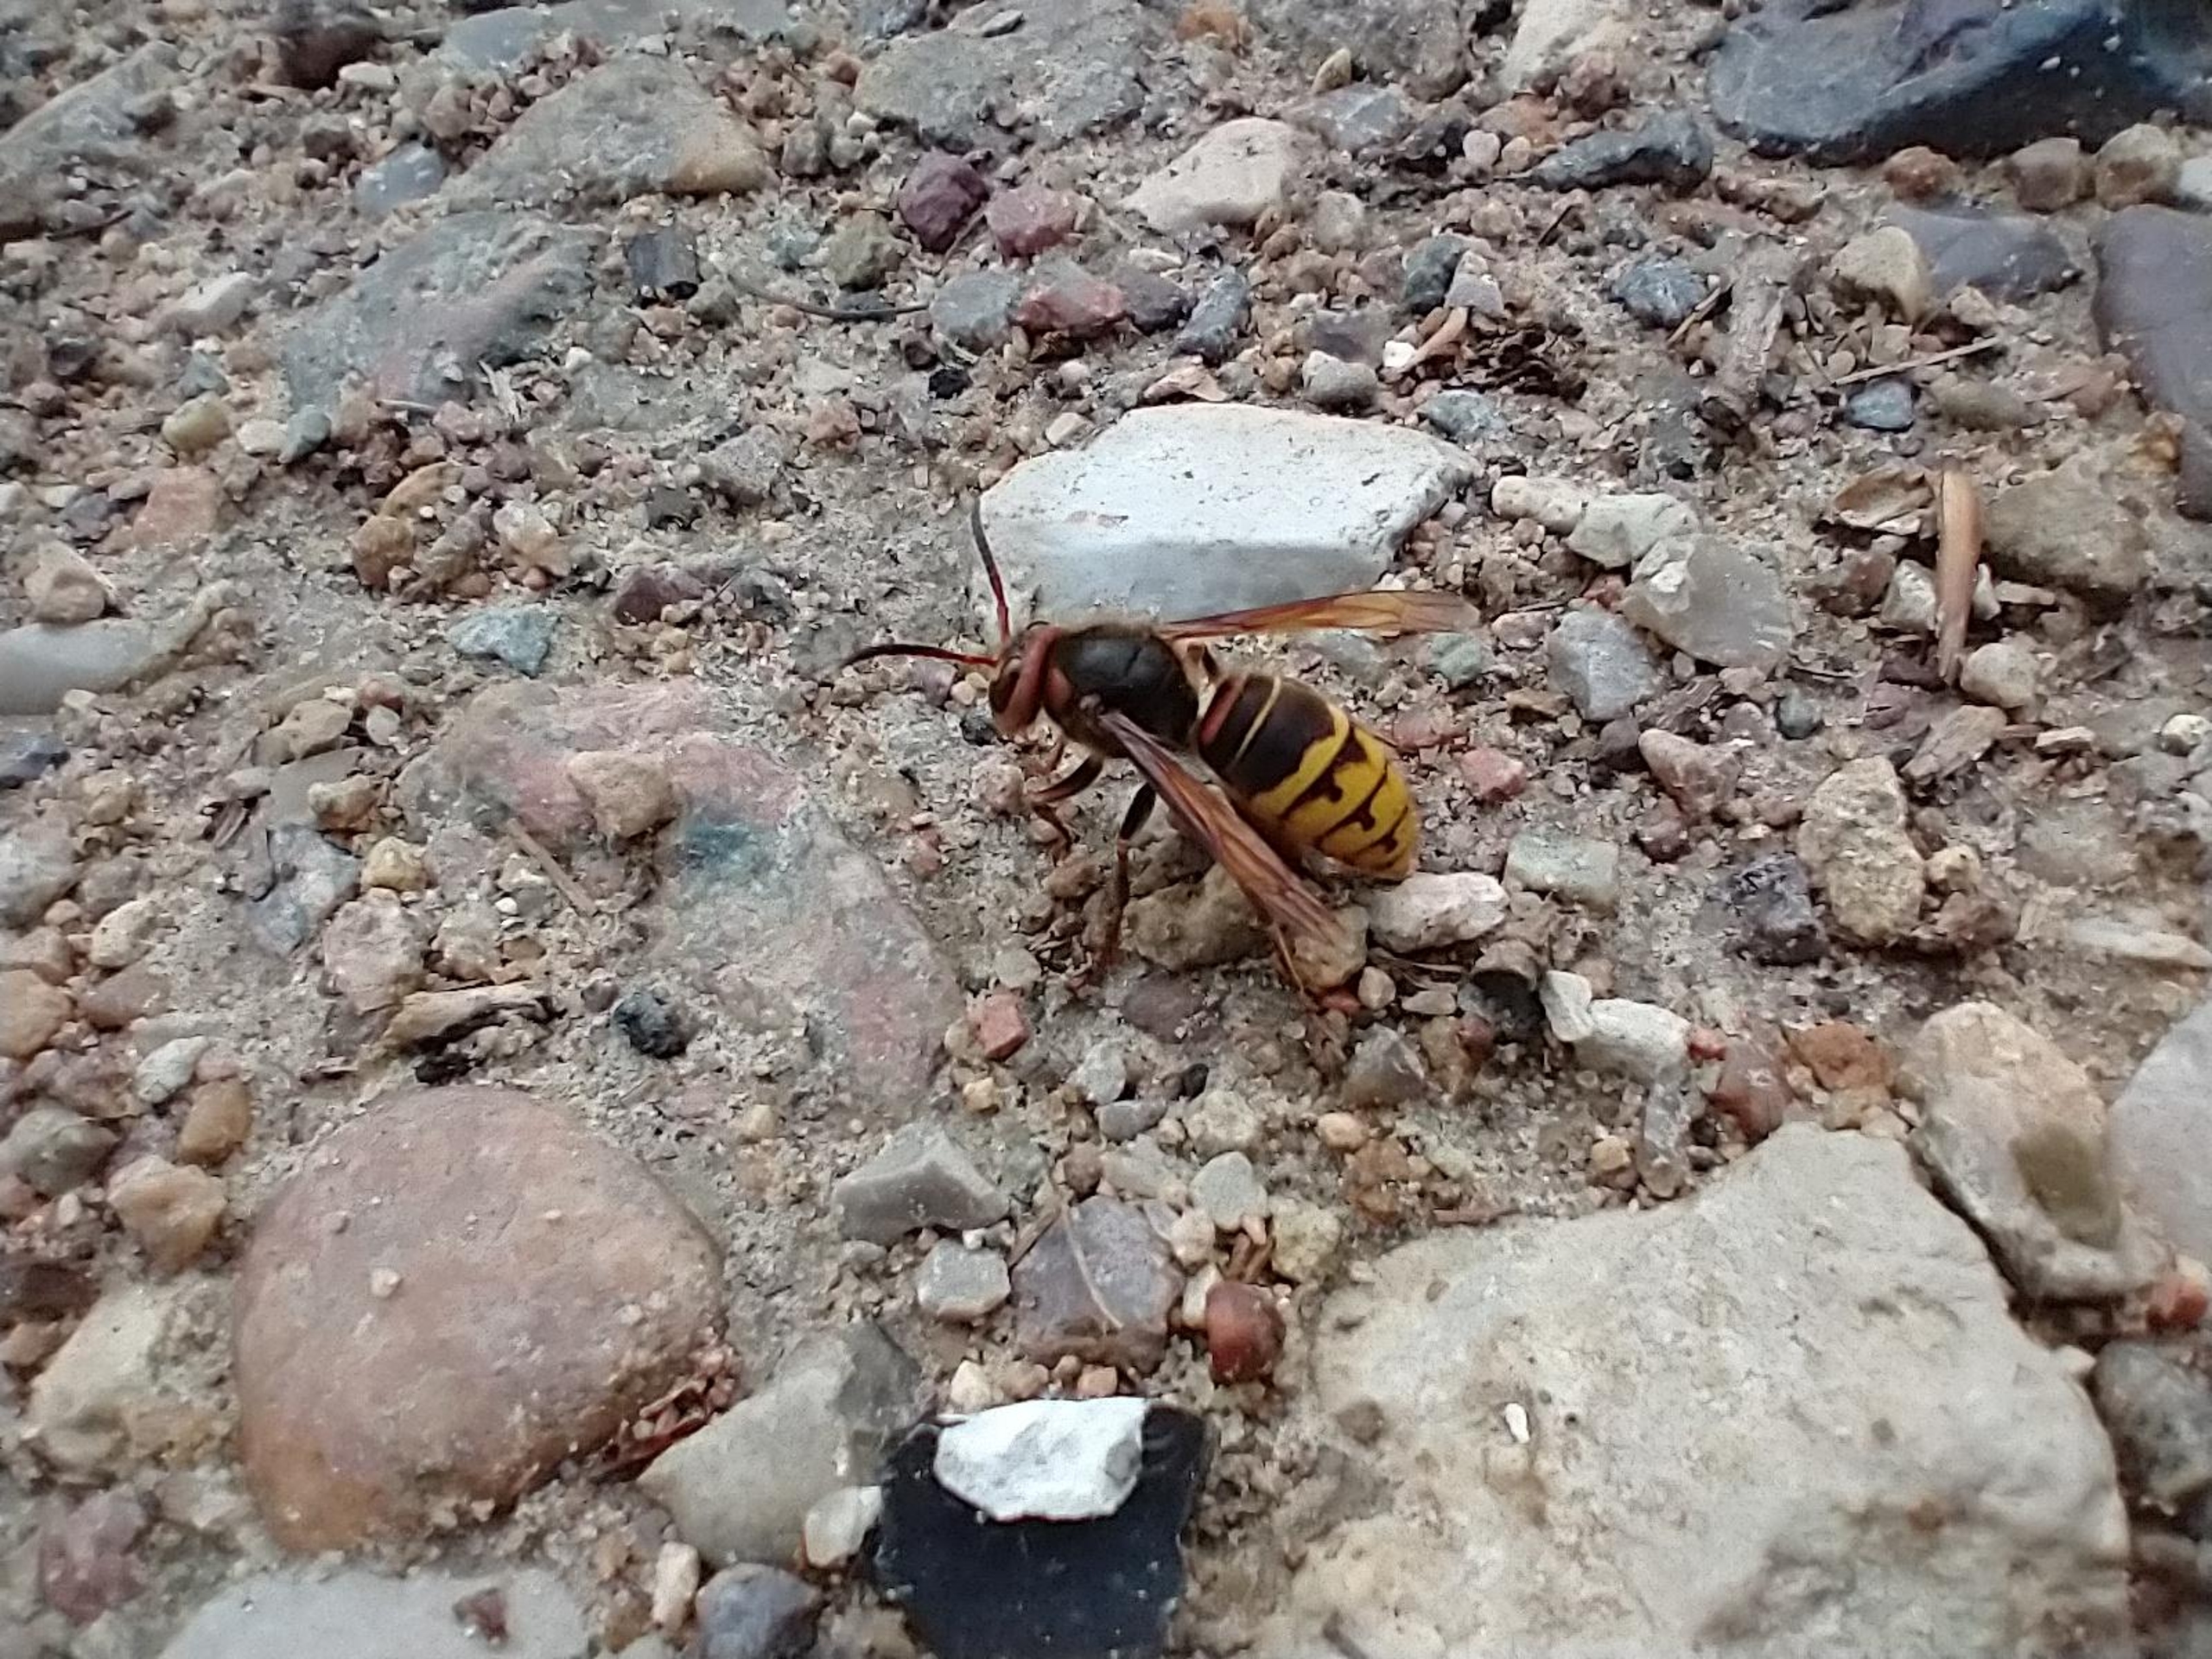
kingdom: Animalia
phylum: Arthropoda
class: Insecta
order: Hymenoptera
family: Vespidae
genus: Vespa
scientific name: Vespa crabro
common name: Stor gedehams
